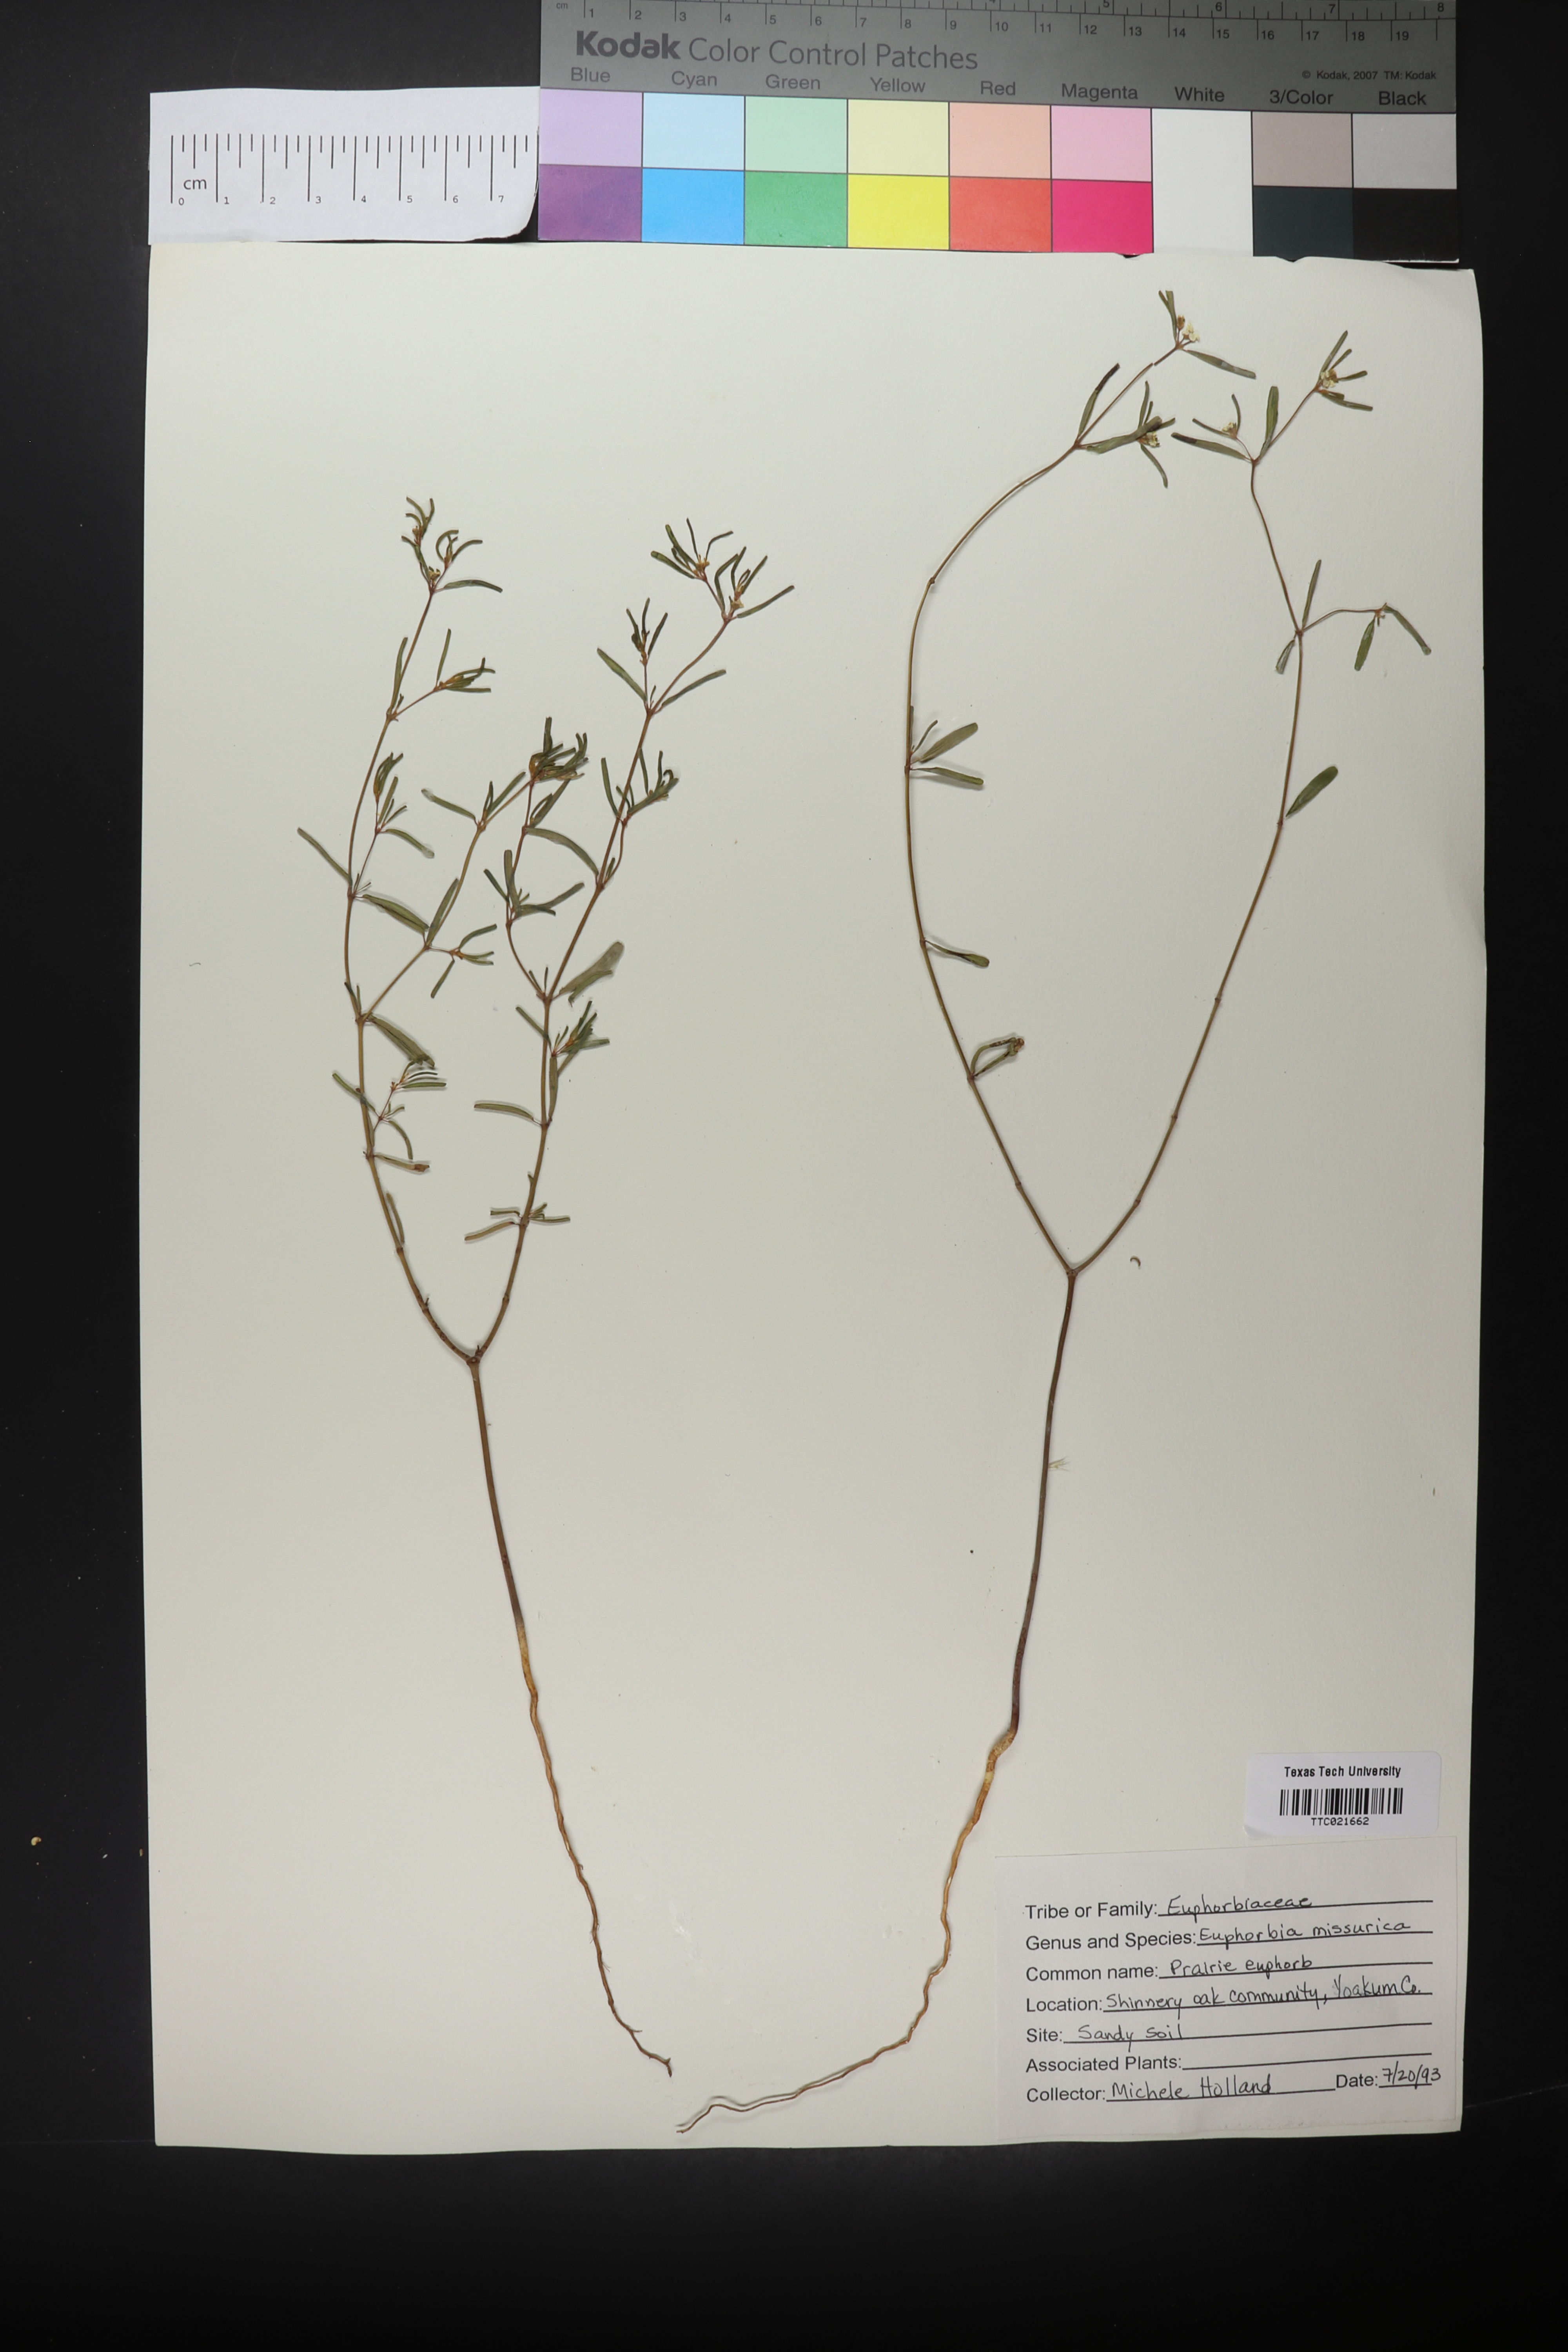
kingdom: Plantae
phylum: Tracheophyta
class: Magnoliopsida
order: Malpighiales
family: Euphorbiaceae
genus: Euphorbia
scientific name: Euphorbia missurica
